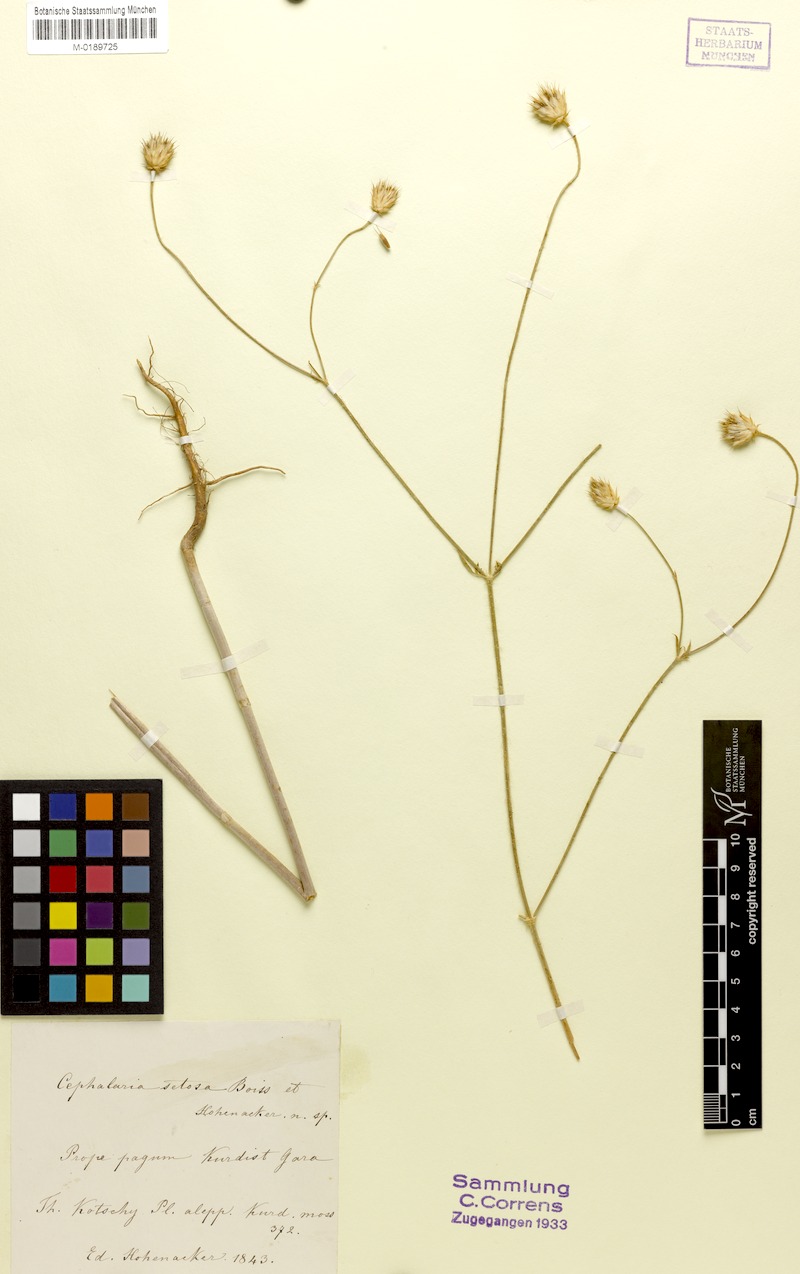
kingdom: Plantae
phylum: Tracheophyta
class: Magnoliopsida
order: Dipsacales
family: Caprifoliaceae
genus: Cephalaria
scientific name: Cephalaria setosa
